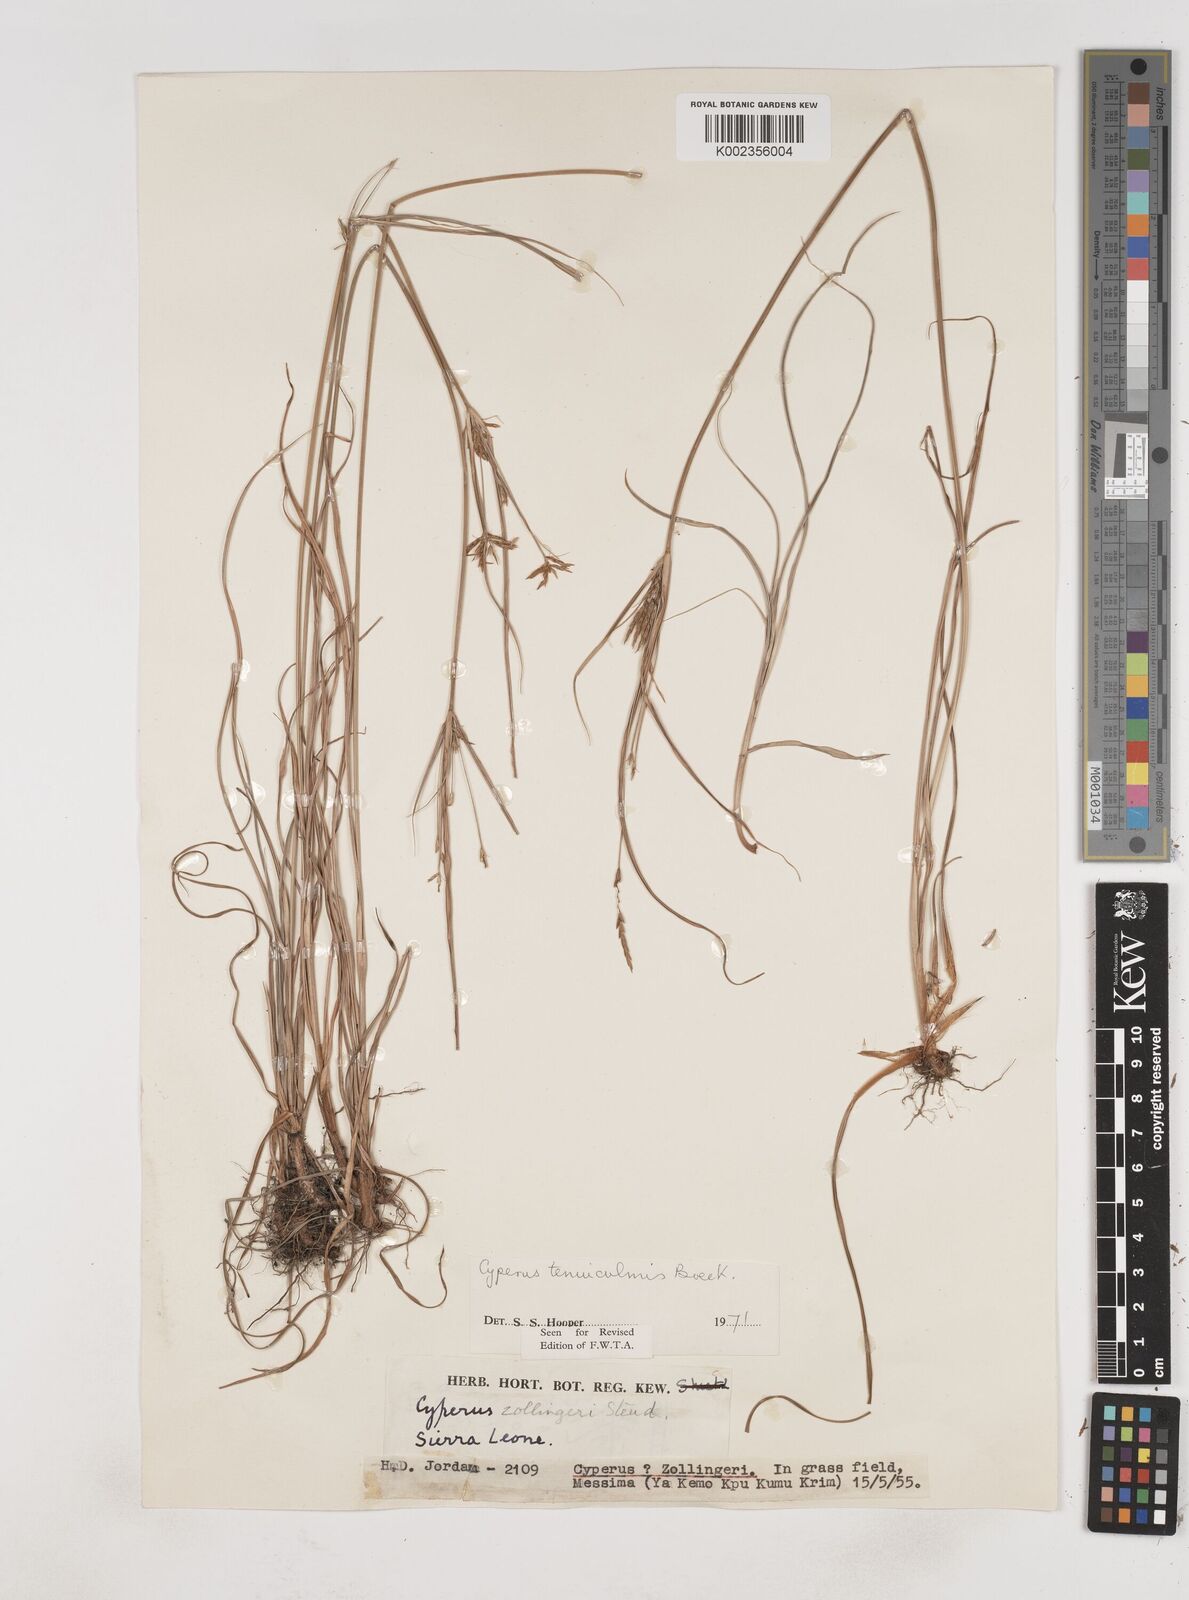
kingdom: Plantae
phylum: Tracheophyta
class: Liliopsida
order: Poales
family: Cyperaceae
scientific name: Cyperaceae
